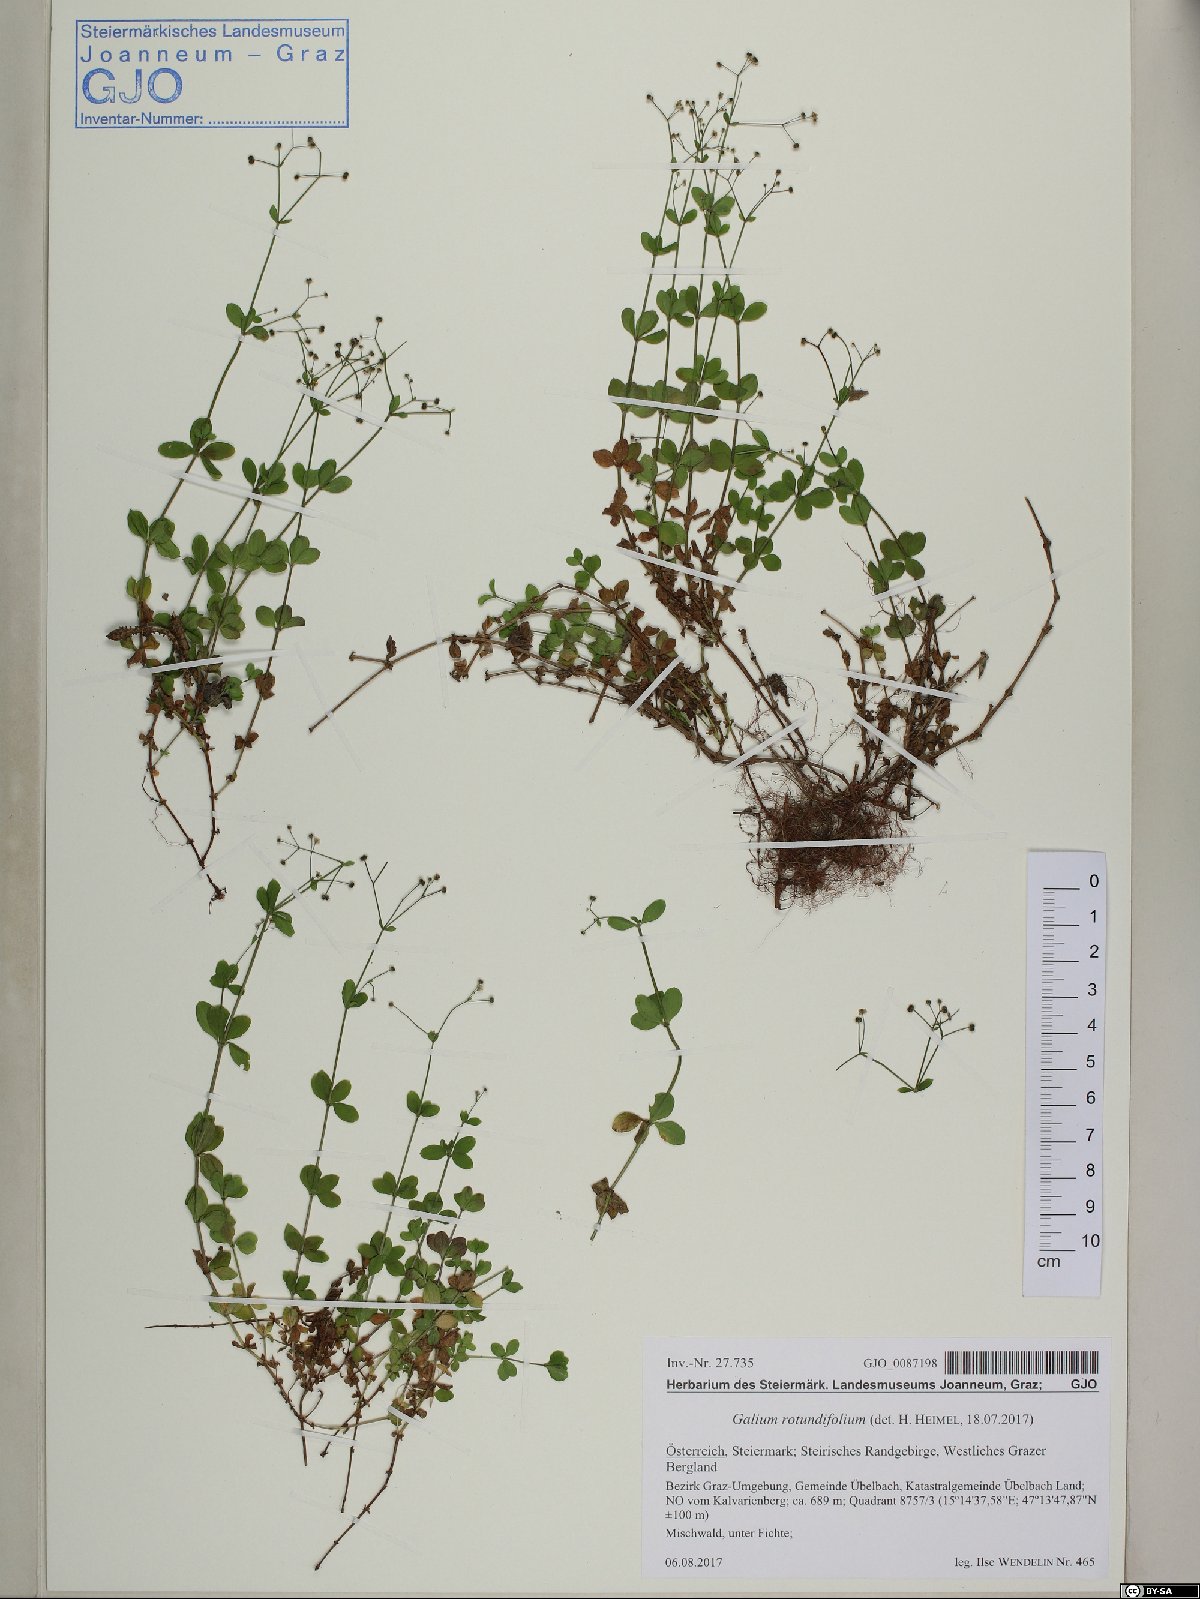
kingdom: Plantae
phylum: Tracheophyta
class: Magnoliopsida
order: Gentianales
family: Rubiaceae
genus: Galium
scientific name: Galium rotundifolium
